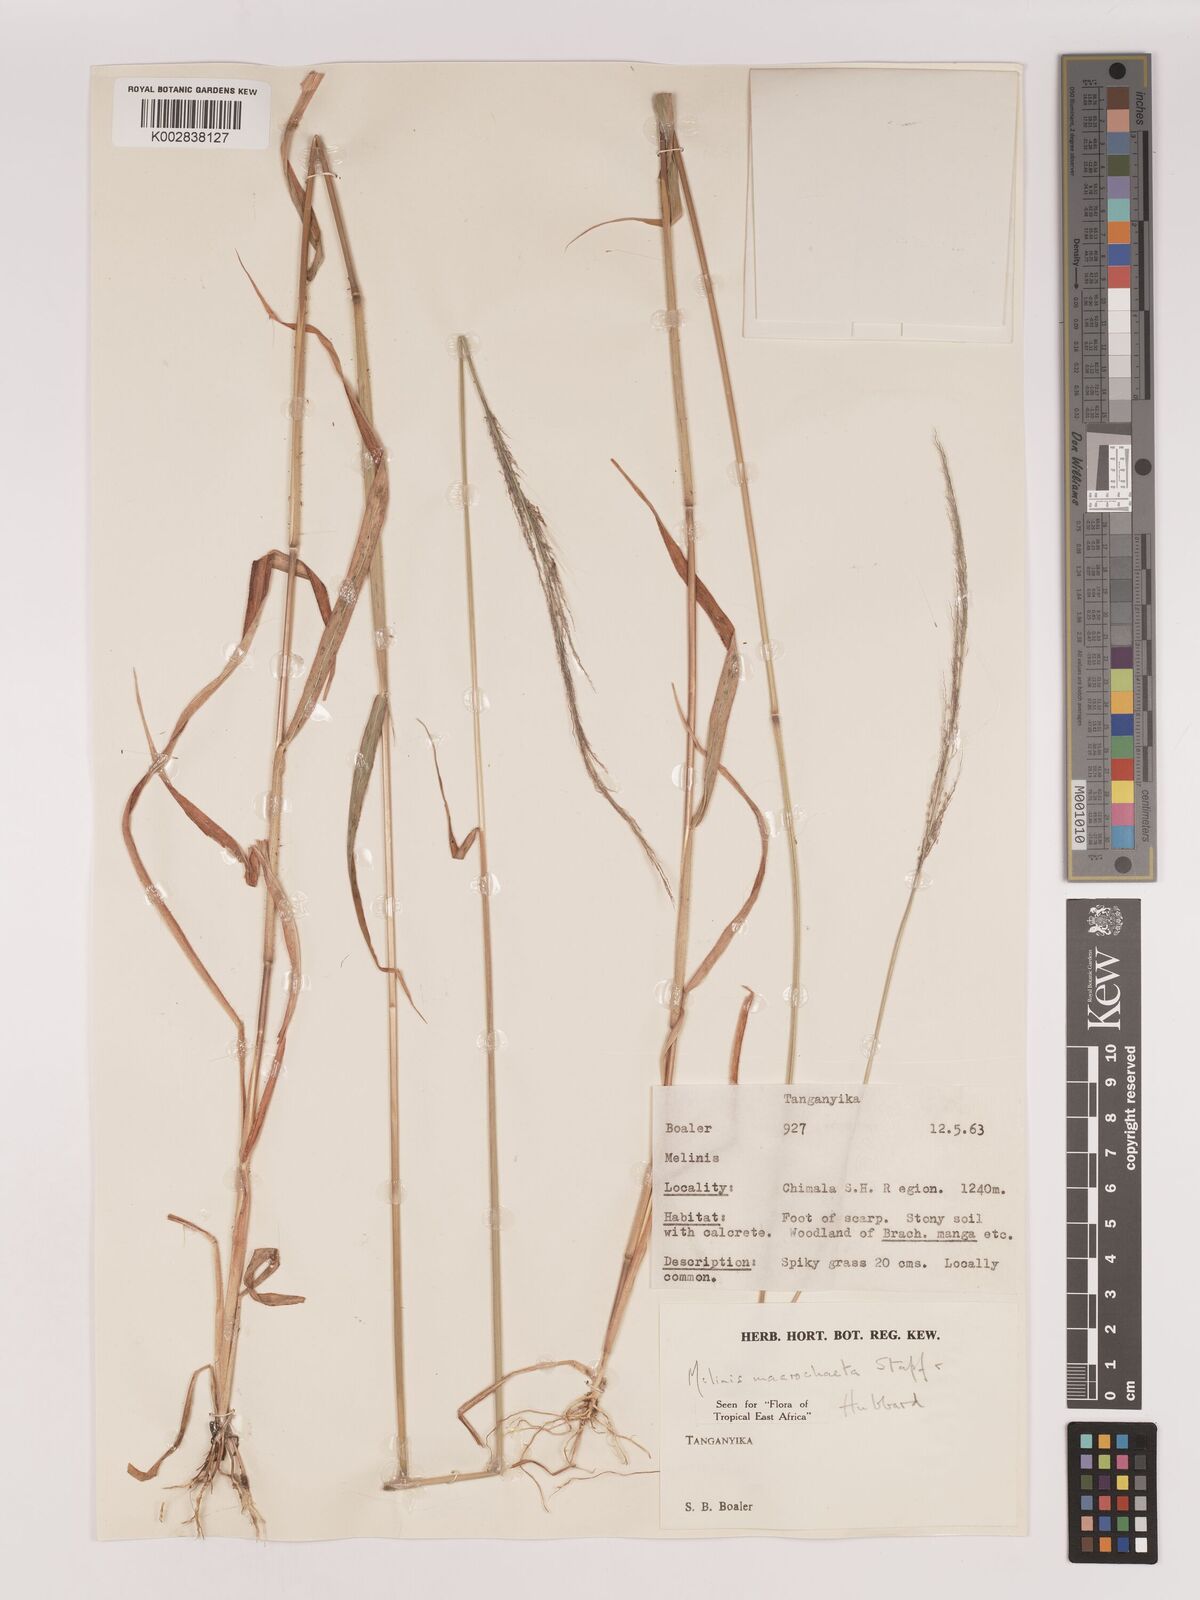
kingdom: Plantae
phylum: Tracheophyta
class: Liliopsida
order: Poales
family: Poaceae
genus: Melinis
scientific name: Melinis macrochaeta
